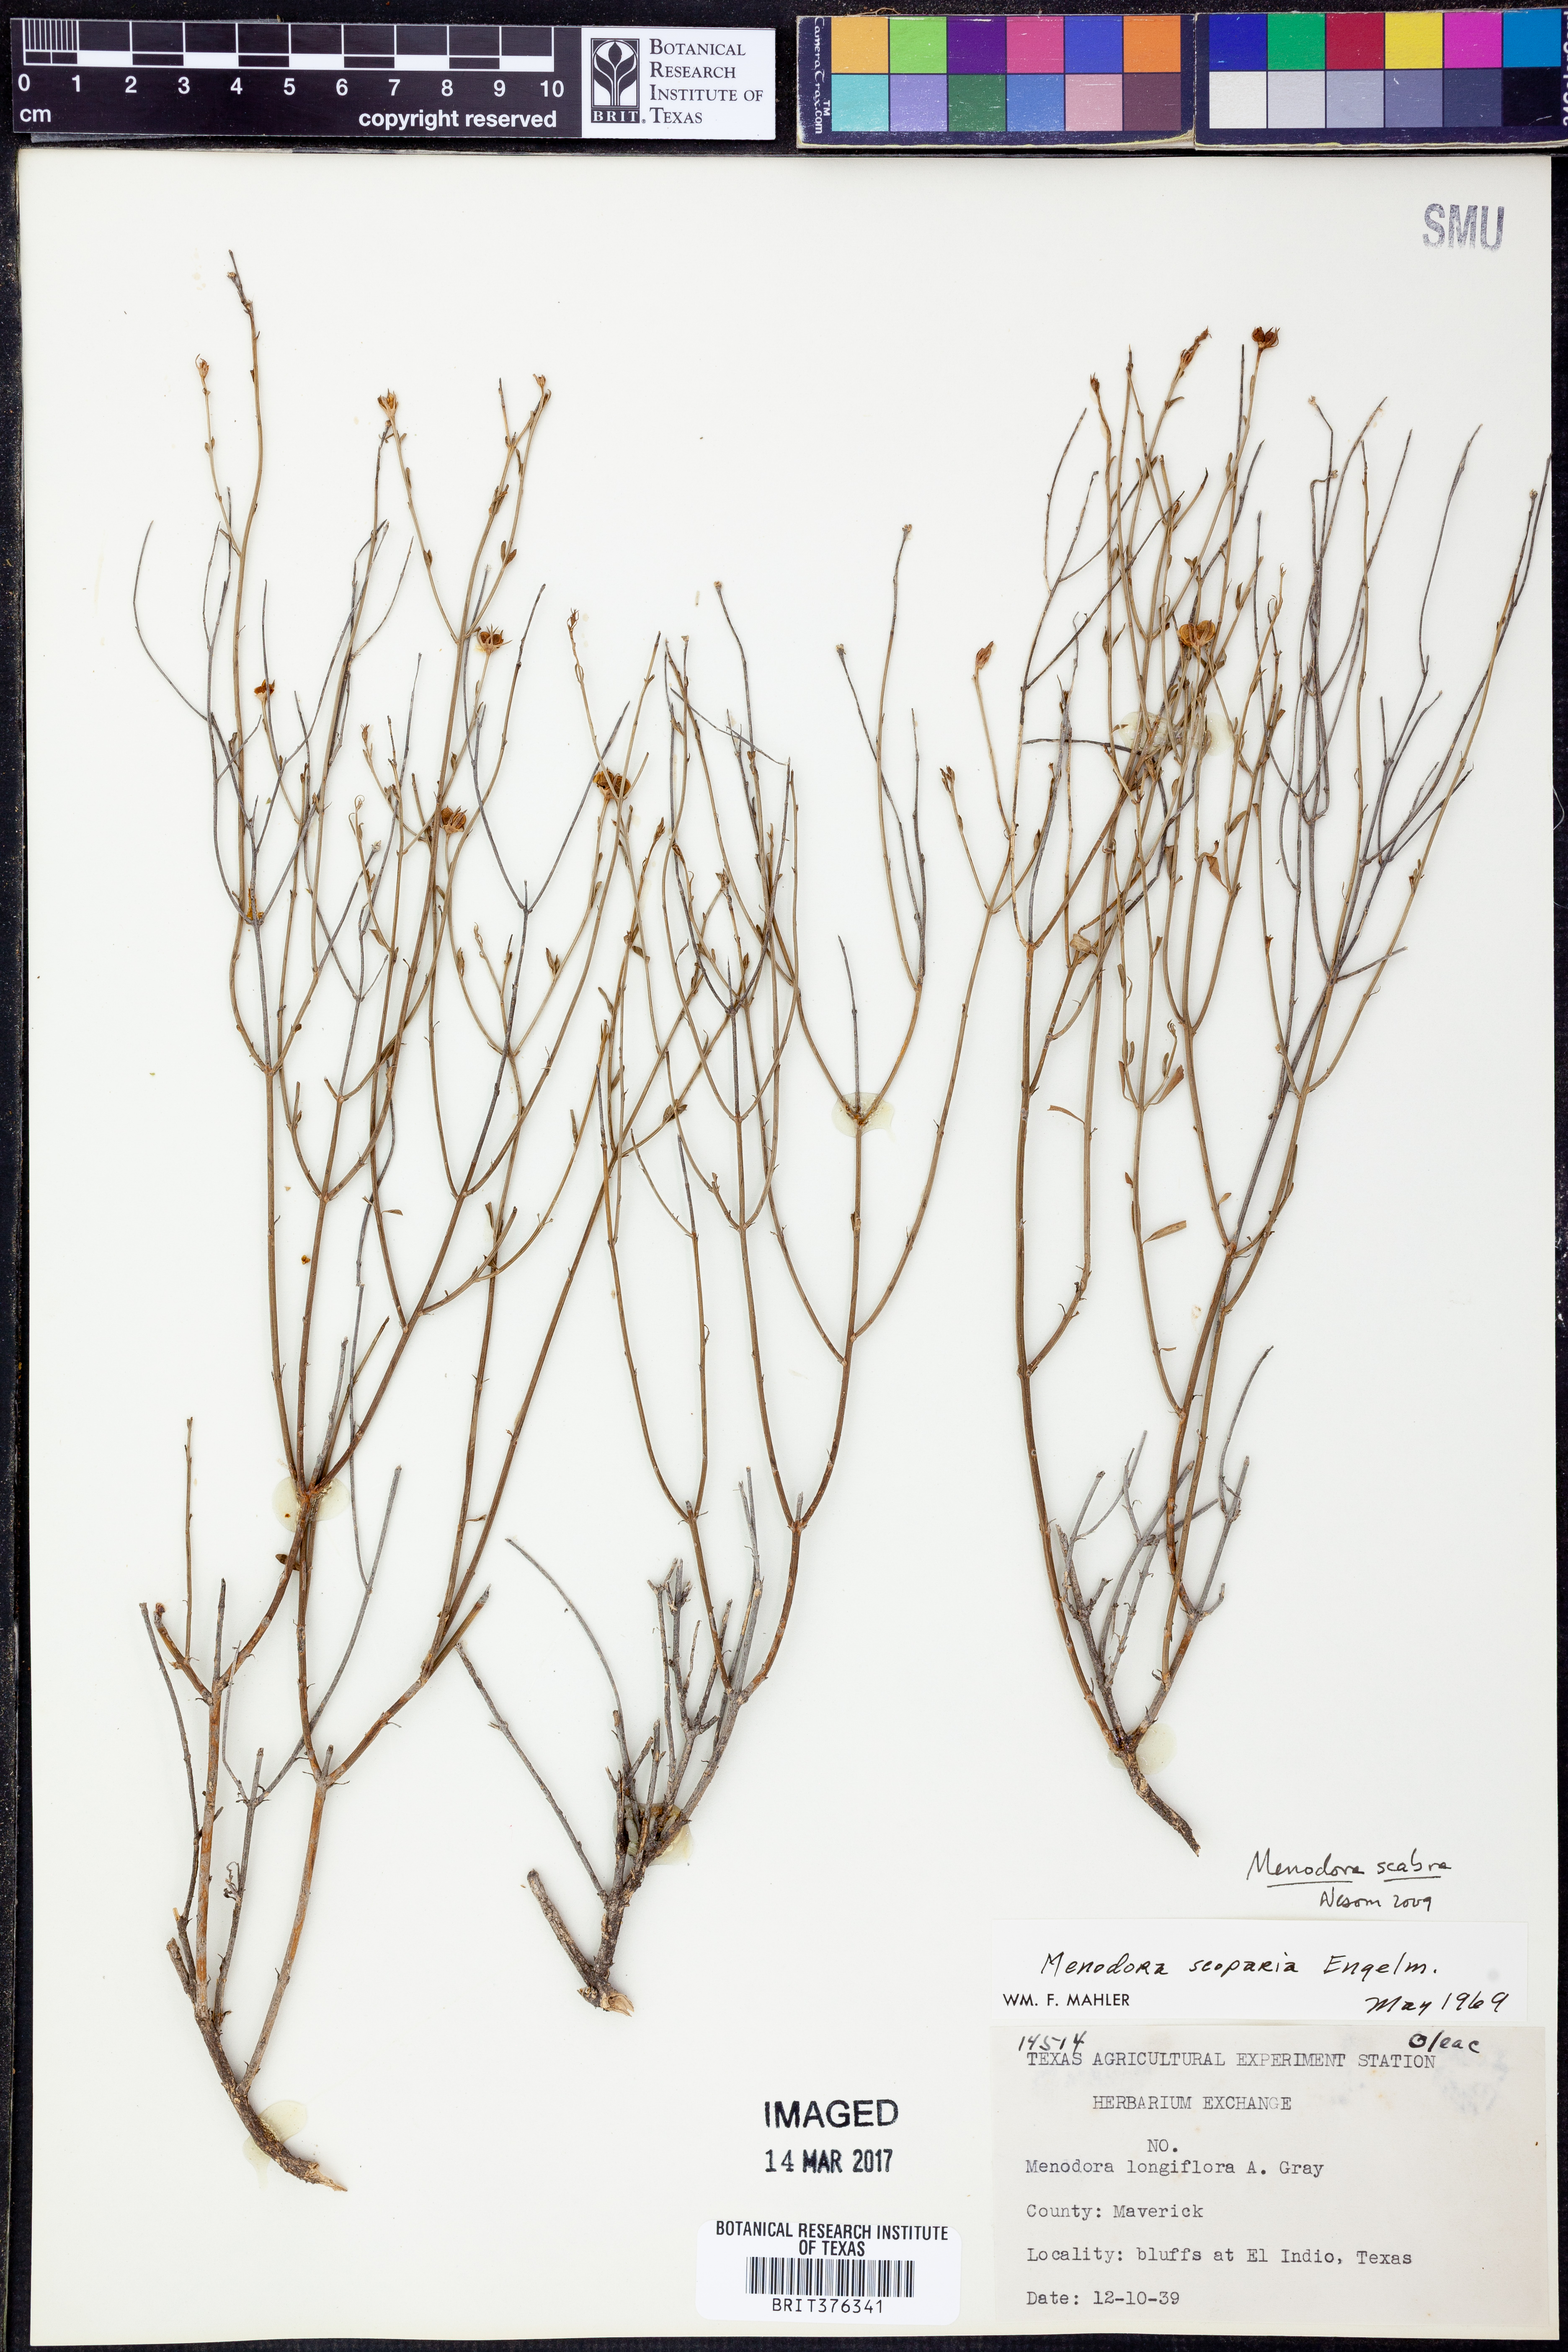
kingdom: Plantae
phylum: Tracheophyta
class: Magnoliopsida
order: Lamiales
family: Oleaceae
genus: Menodora
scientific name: Menodora scabra
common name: Rough menodora
